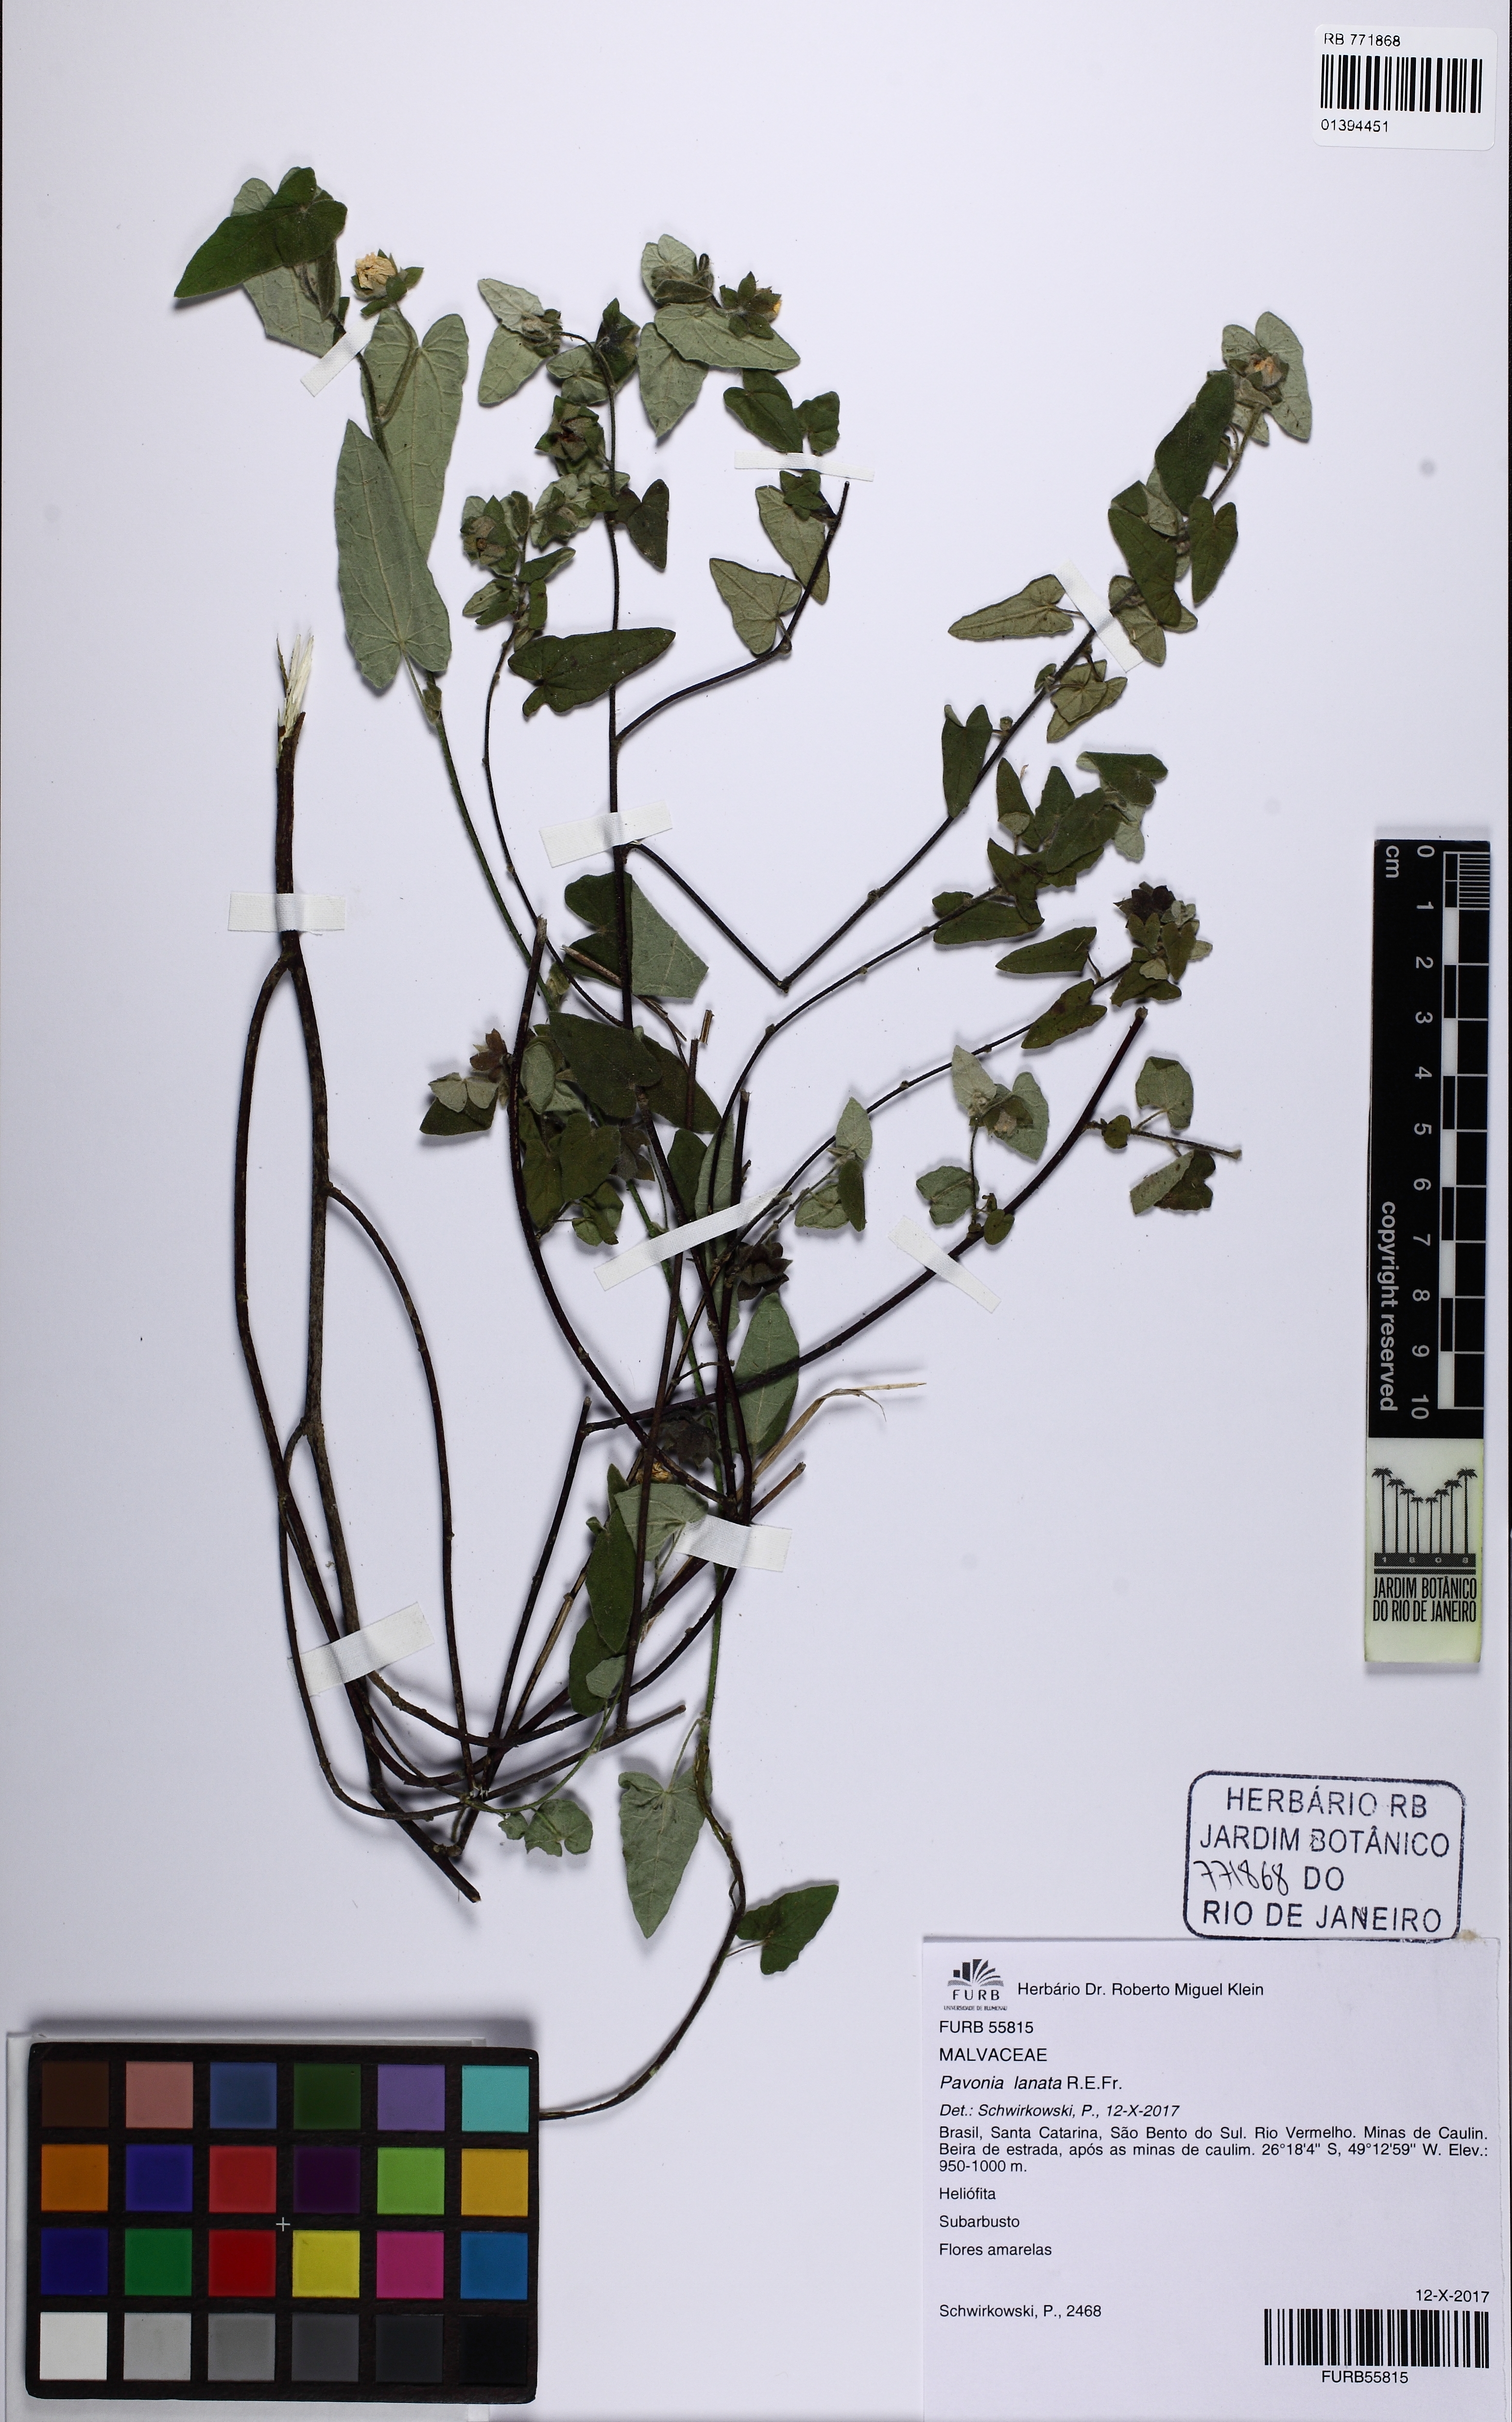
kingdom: Plantae
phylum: Tracheophyta
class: Magnoliopsida
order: Malvales
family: Malvaceae
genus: Pavonia
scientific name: Pavonia lanata
